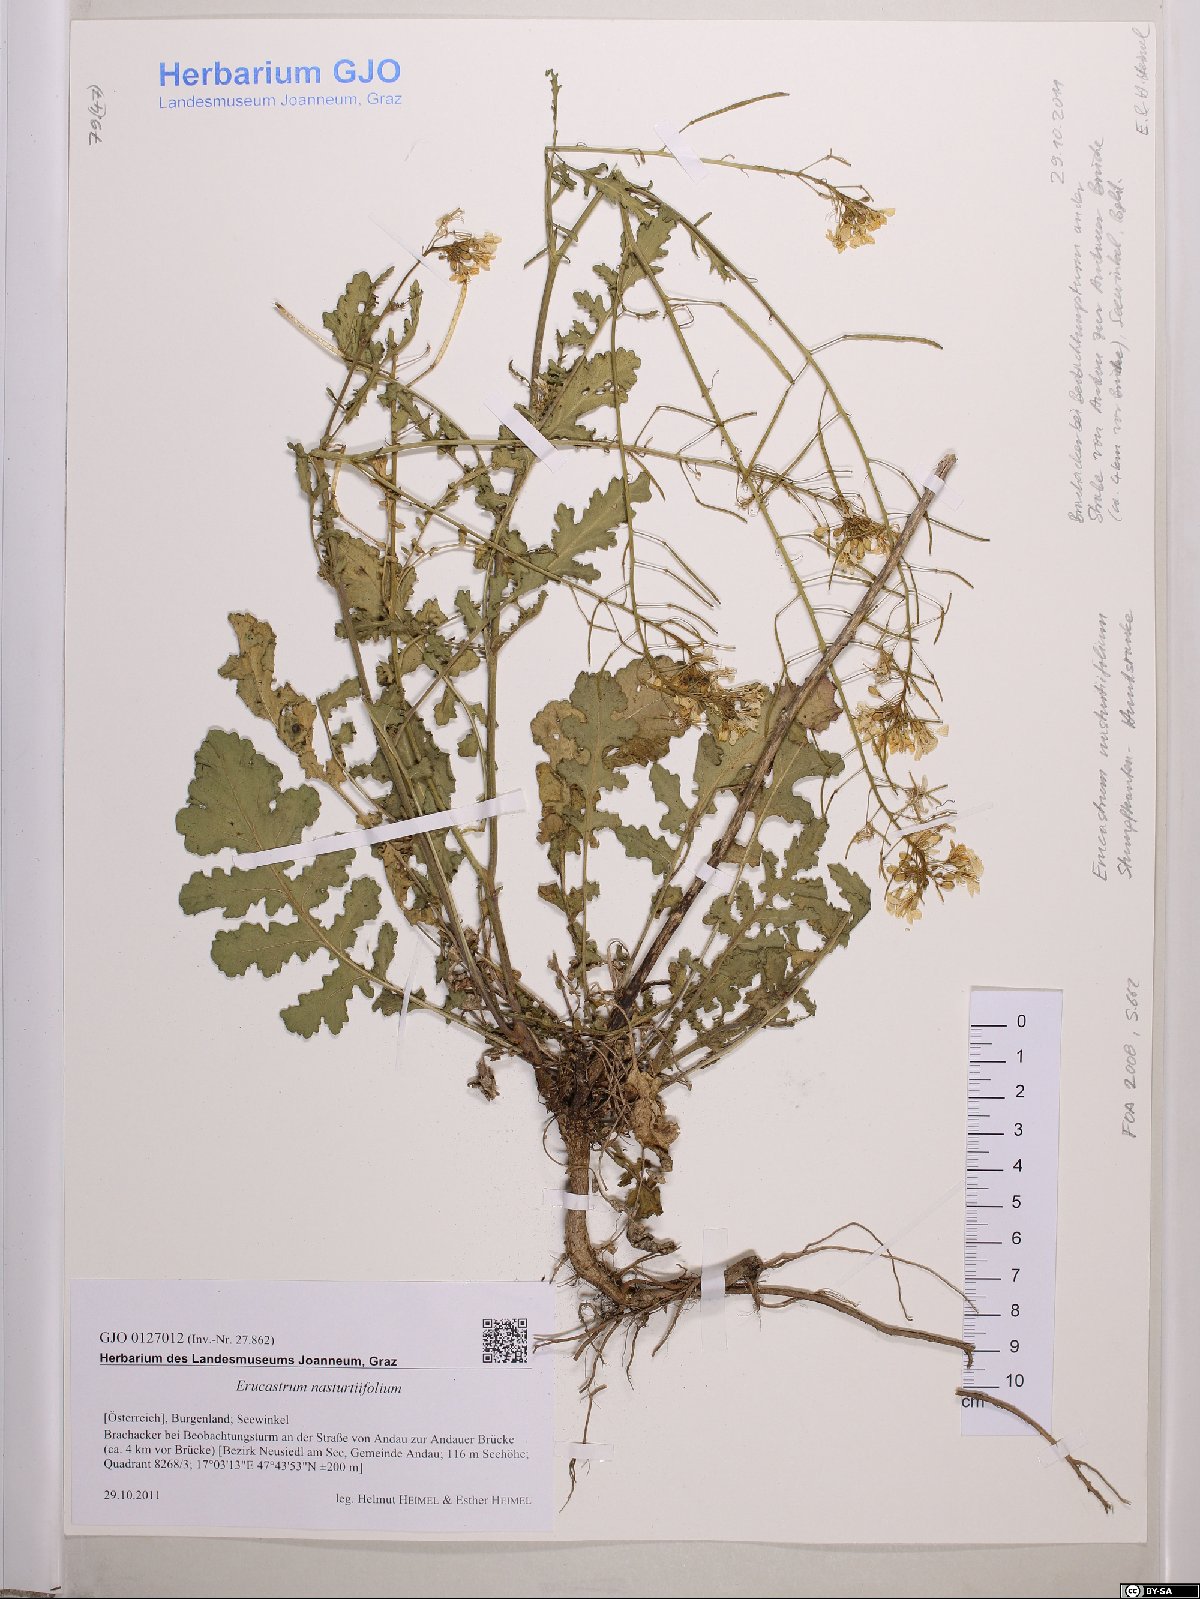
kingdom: Plantae
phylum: Tracheophyta
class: Magnoliopsida
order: Brassicales
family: Brassicaceae
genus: Erucastrum
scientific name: Erucastrum nasturtiifolium
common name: Watercress-leaf rocket
